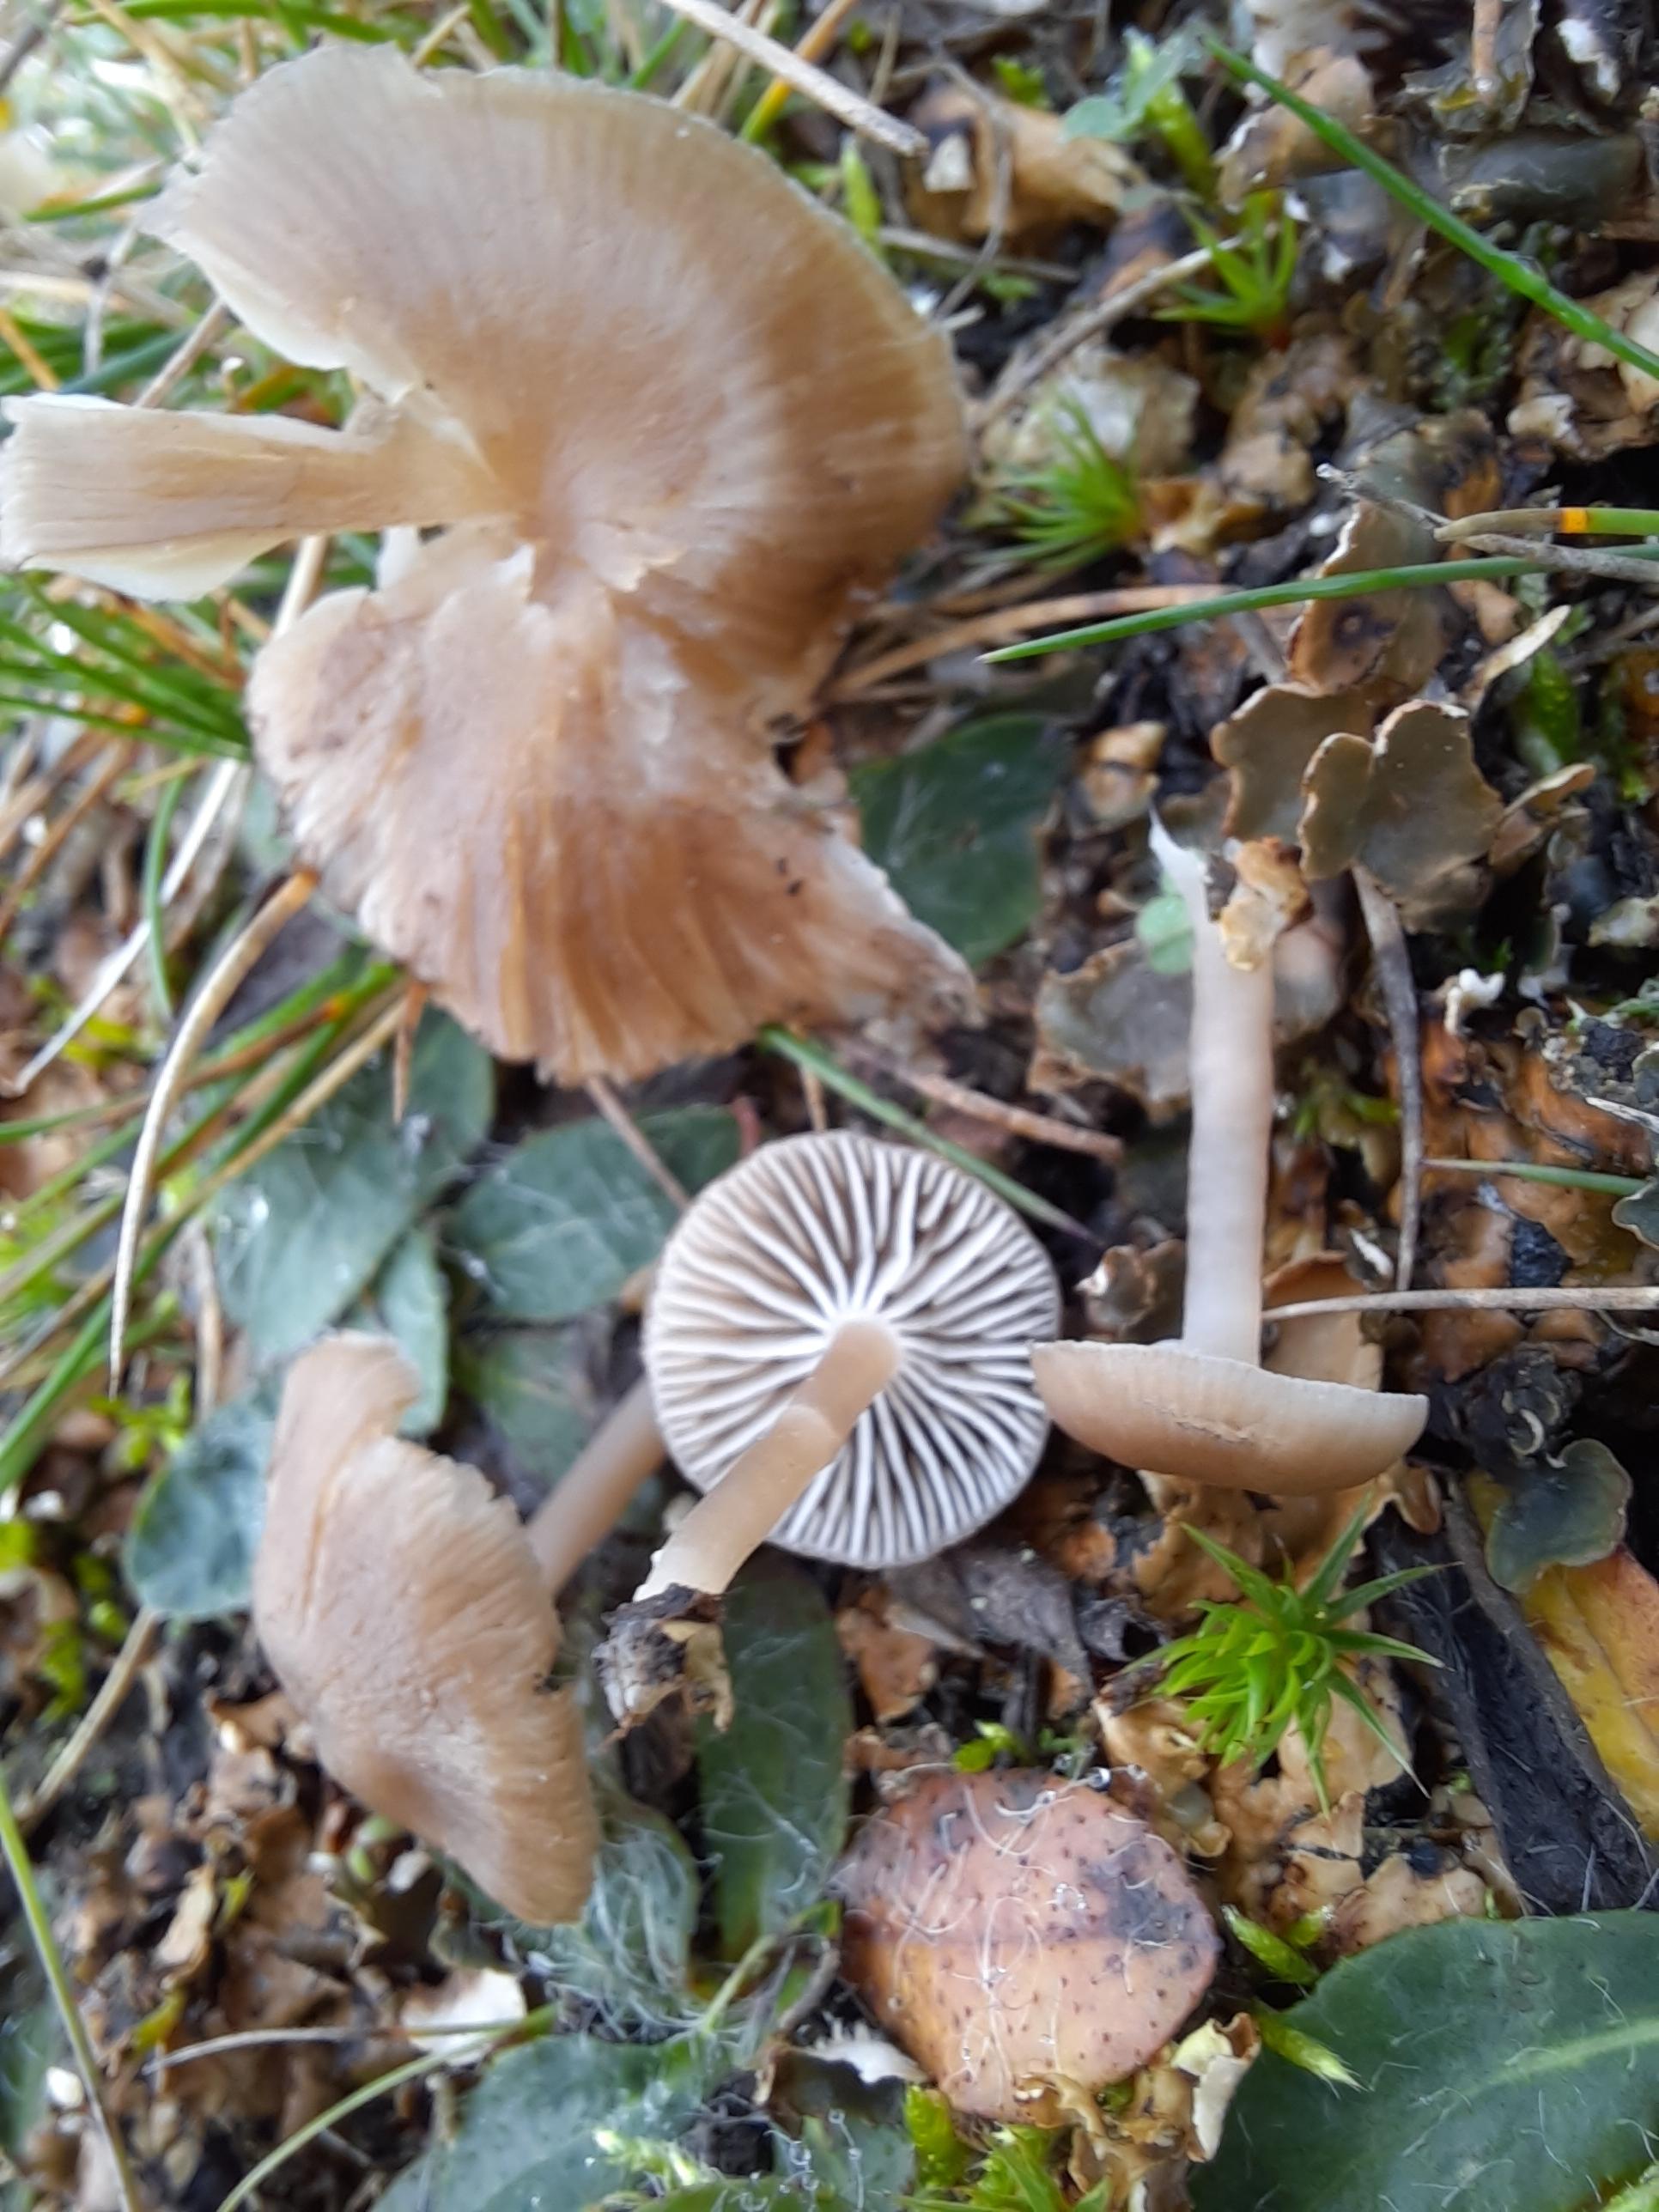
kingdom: Fungi
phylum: Basidiomycota
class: Agaricomycetes
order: Agaricales
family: Tricholomataceae
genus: Gamundia
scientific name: Gamundia xerophila
